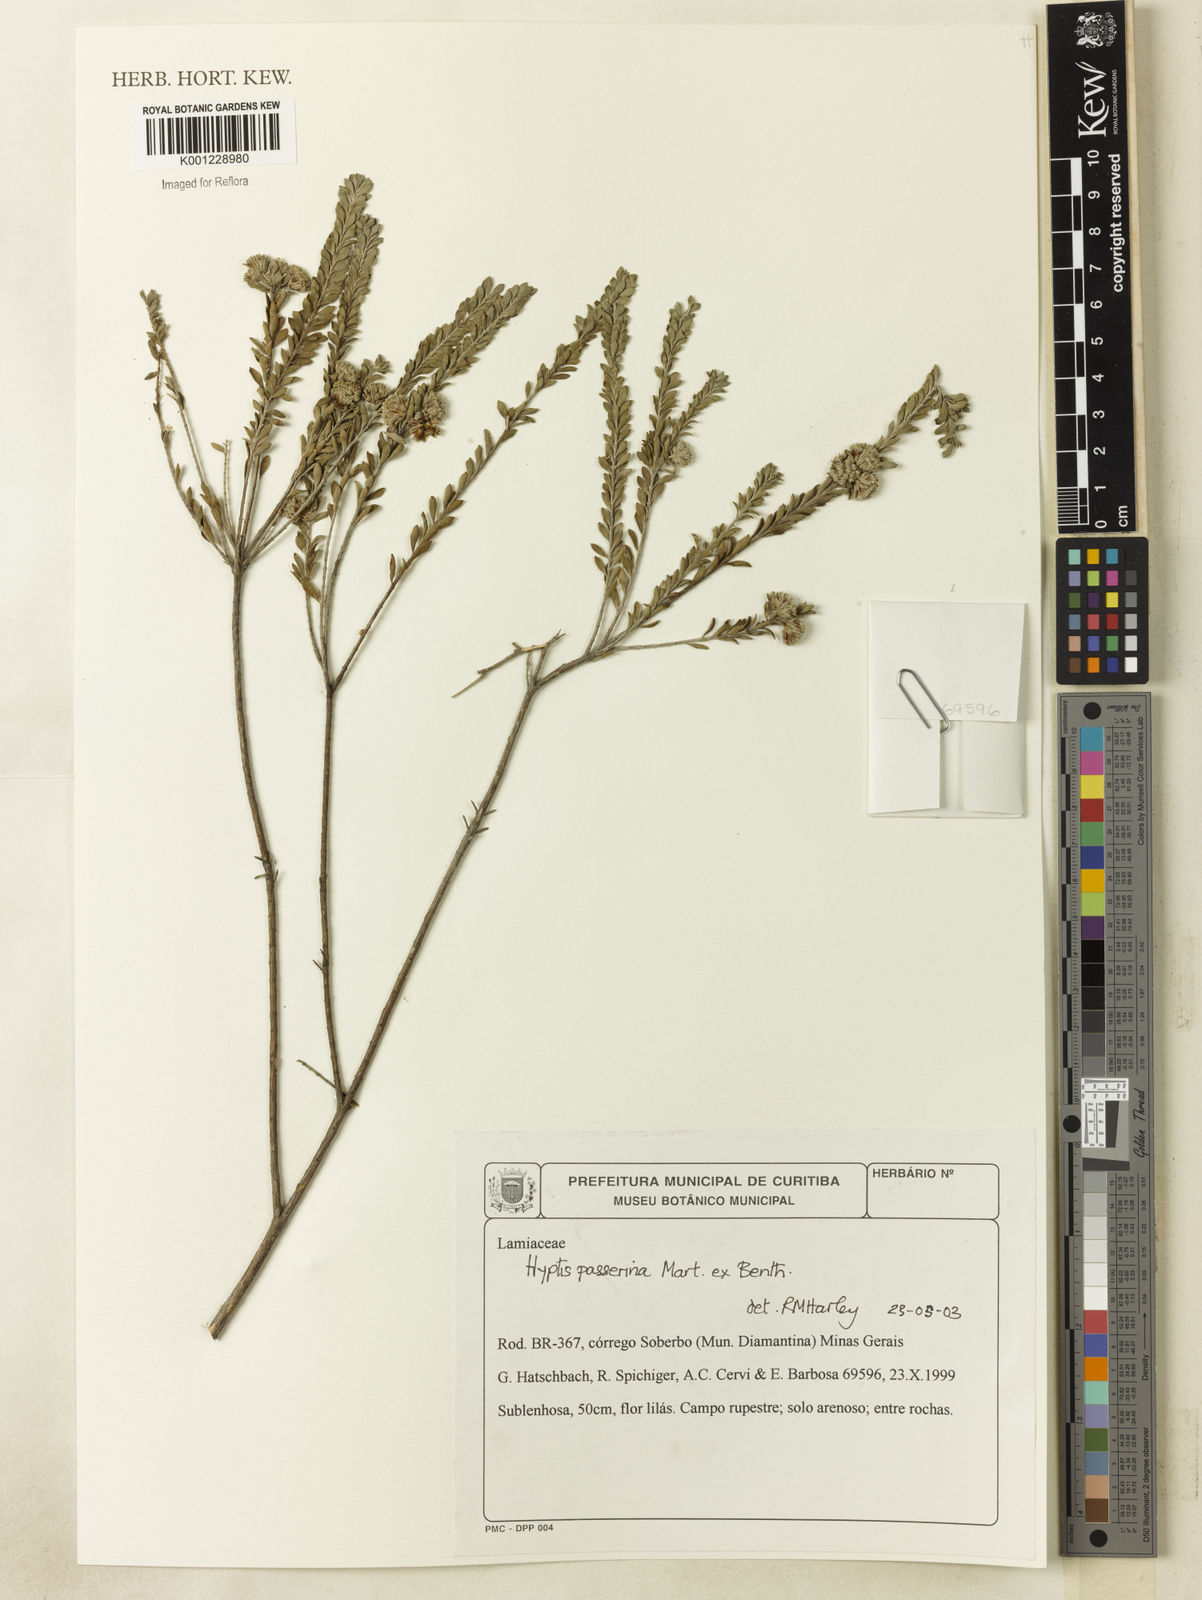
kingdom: Plantae
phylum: Tracheophyta
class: Magnoliopsida
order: Lamiales
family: Lamiaceae
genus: Hyptis
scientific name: Hyptis passerina
